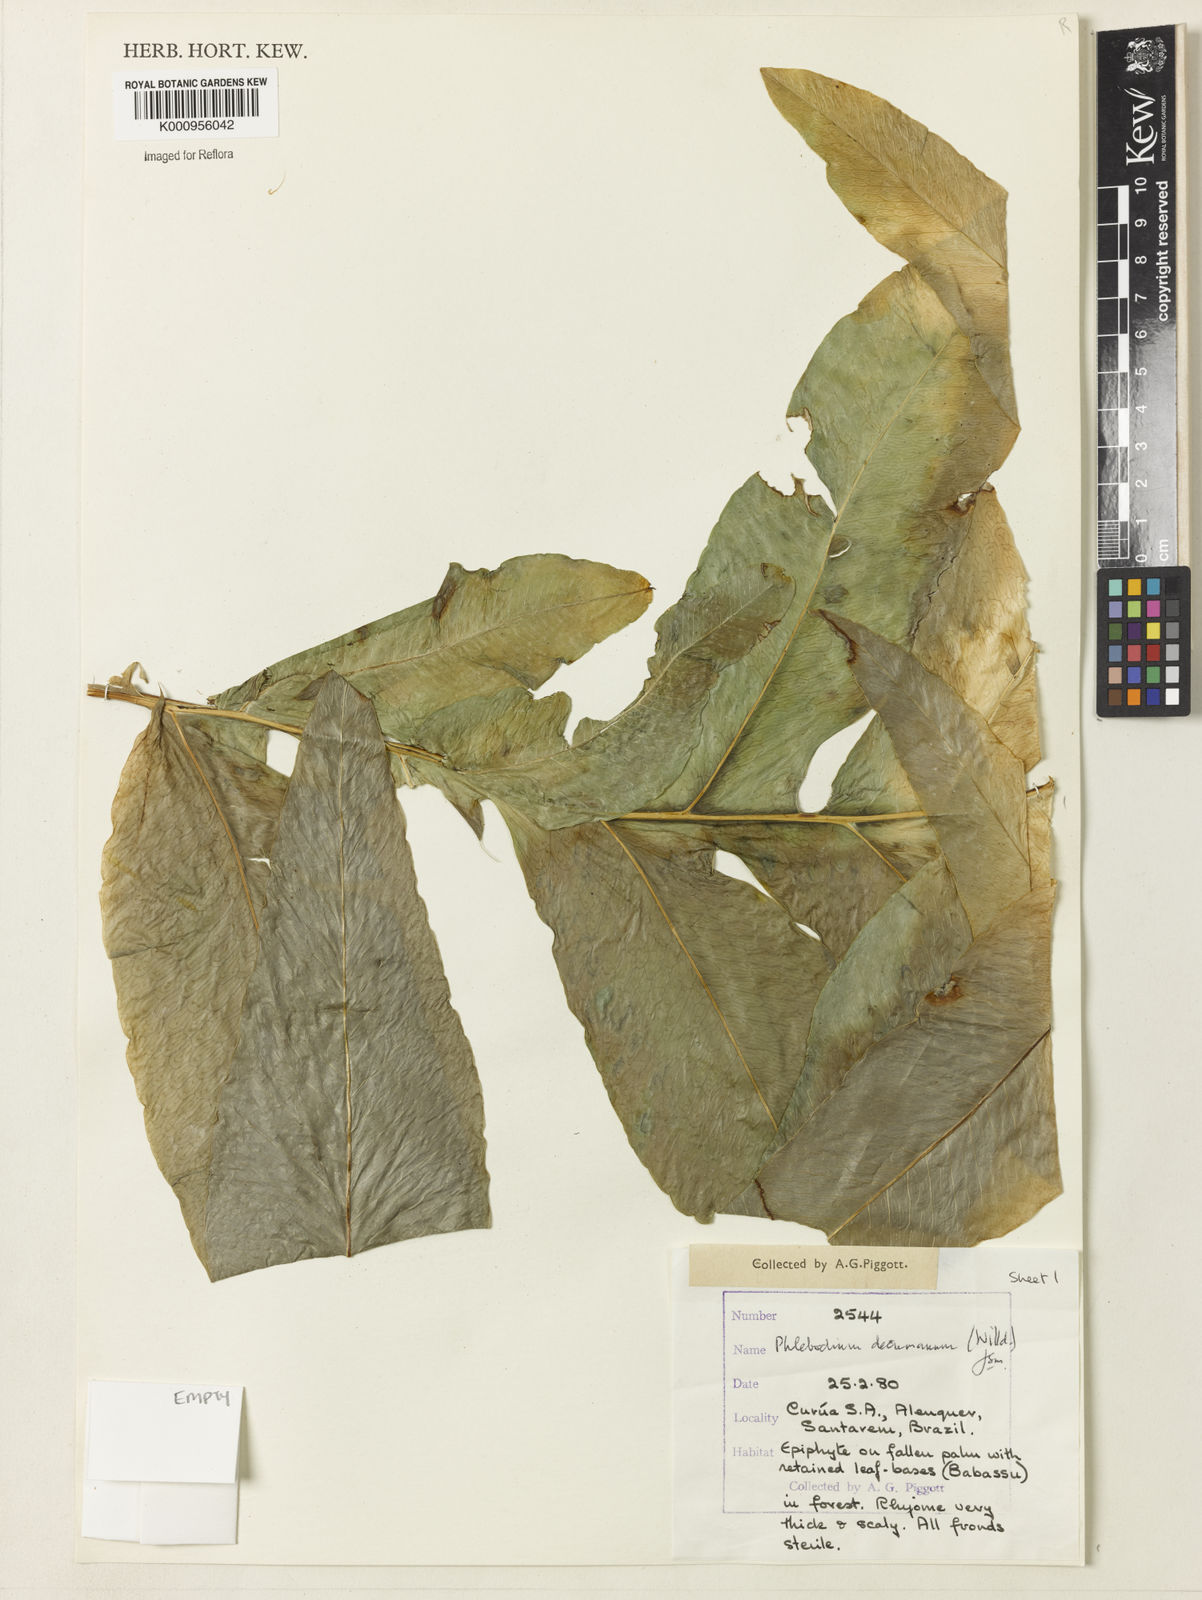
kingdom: Plantae
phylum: Tracheophyta
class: Polypodiopsida
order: Polypodiales
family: Polypodiaceae
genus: Phlebodium
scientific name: Phlebodium decumanum
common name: Golden polypod
